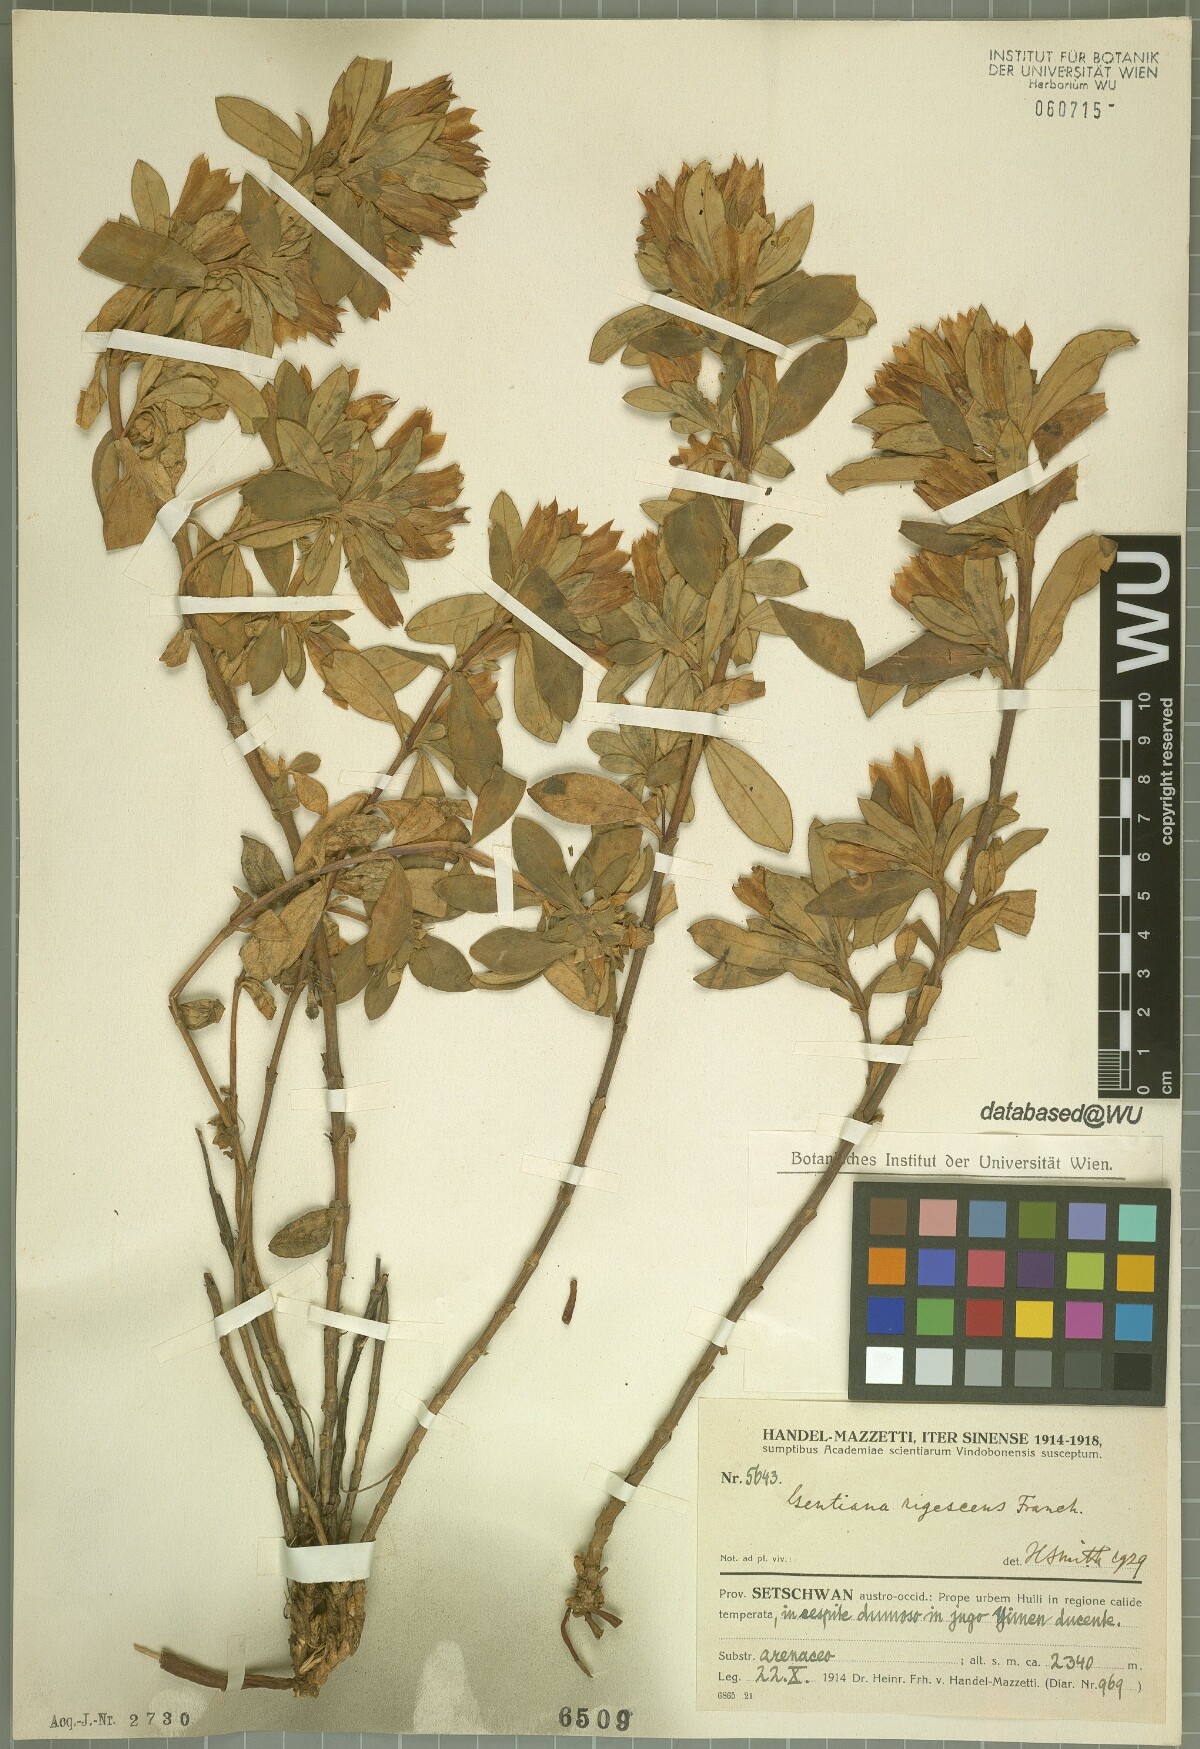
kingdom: Plantae
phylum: Tracheophyta
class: Magnoliopsida
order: Gentianales
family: Gentianaceae
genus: Gentiana
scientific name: Gentiana crassa
